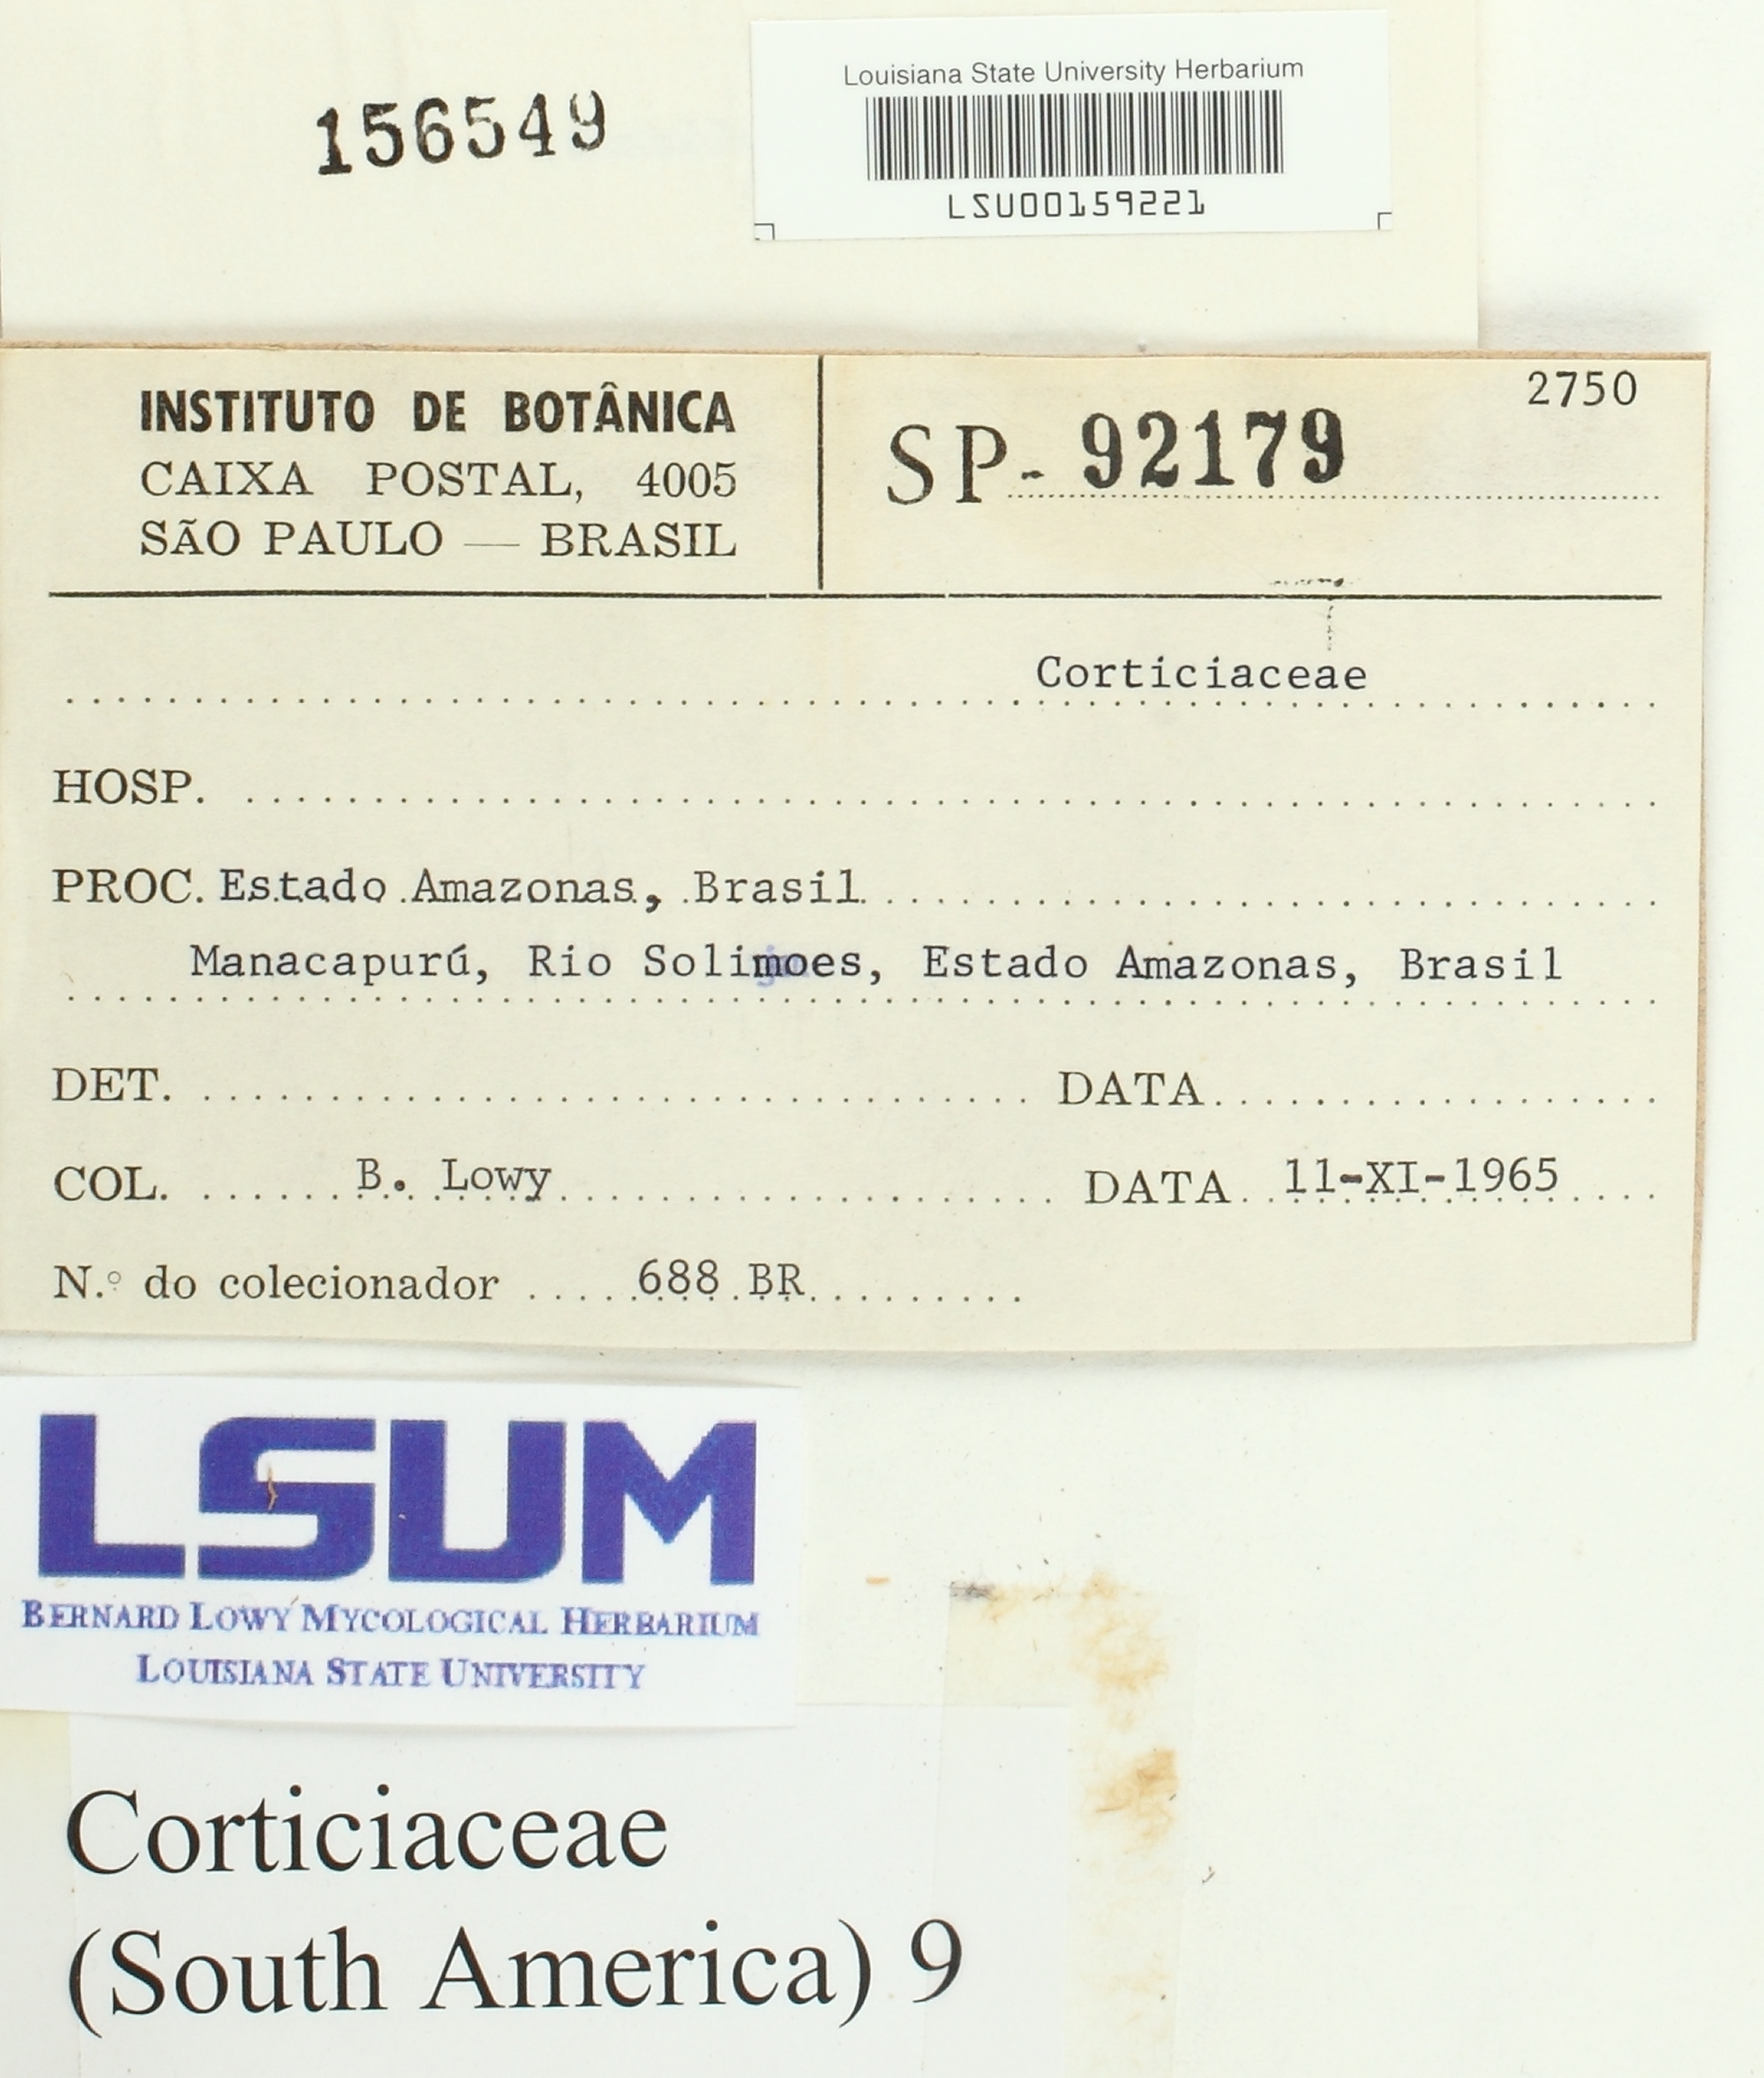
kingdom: Fungi
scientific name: Fungi
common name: Fungi
